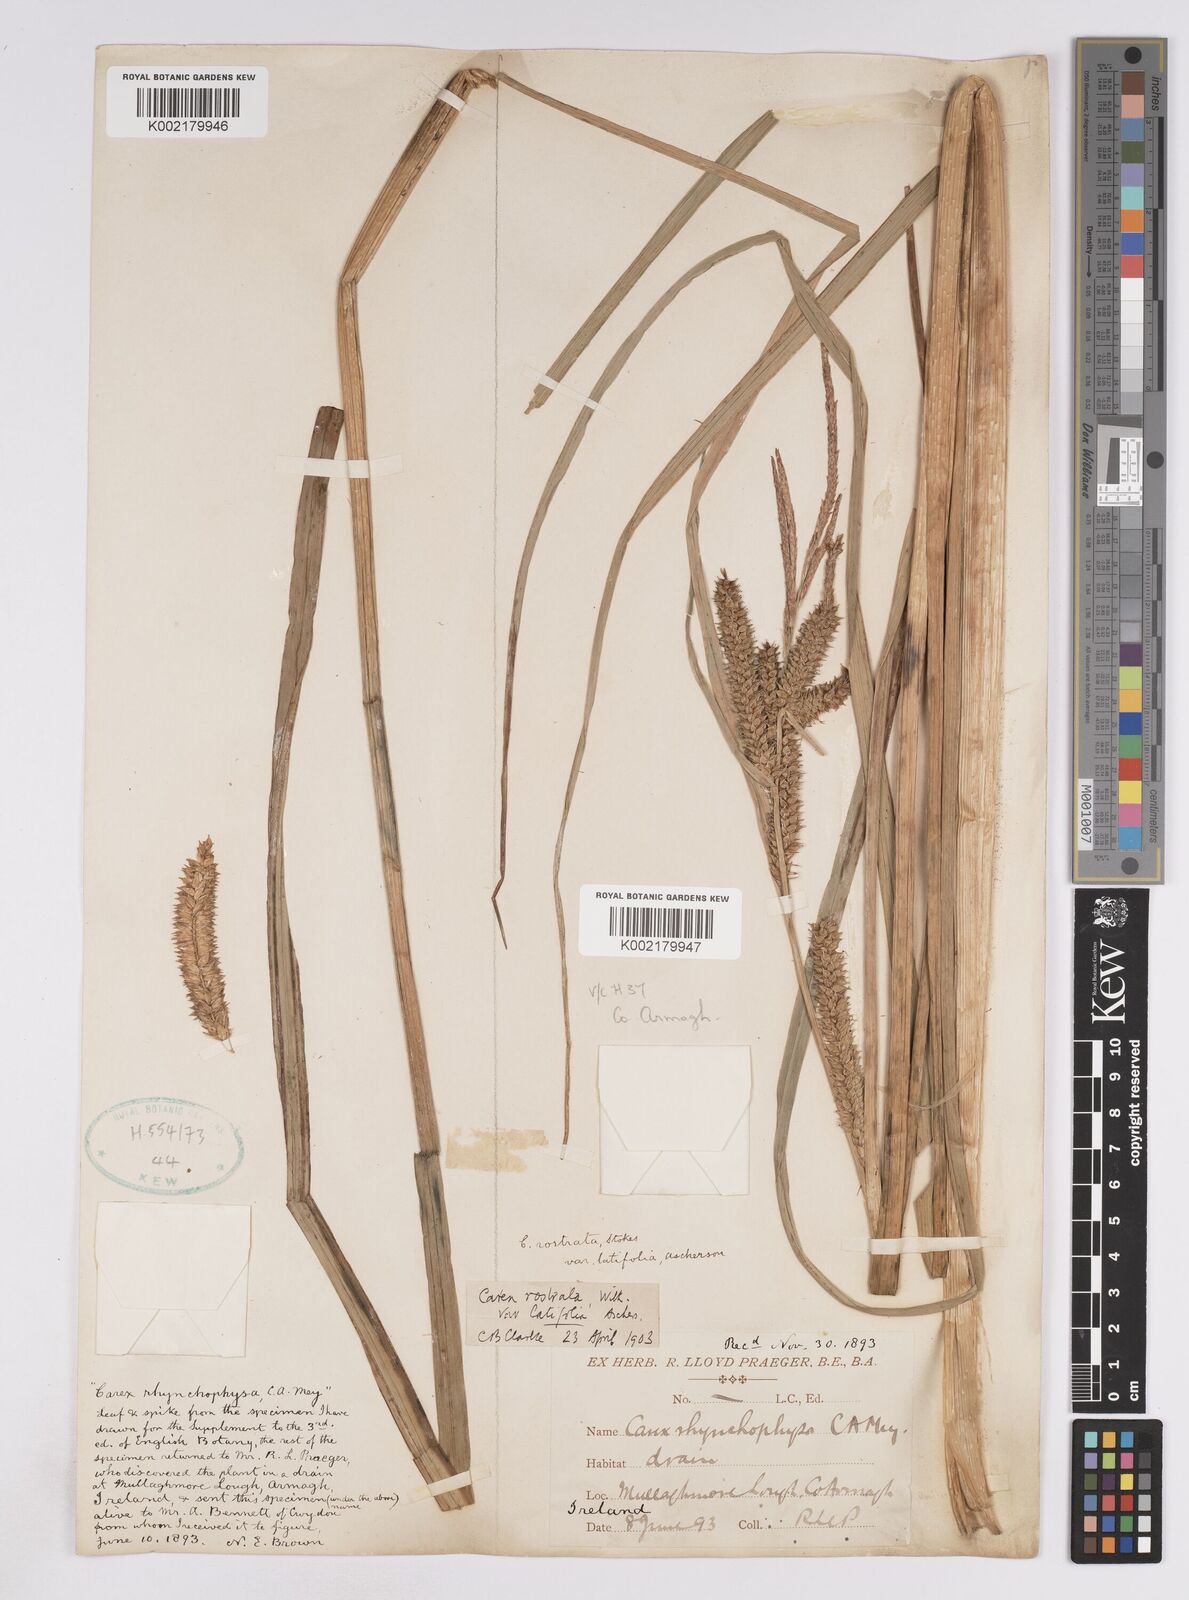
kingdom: Plantae
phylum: Tracheophyta
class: Liliopsida
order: Poales
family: Cyperaceae
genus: Carex
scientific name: Carex utriculata
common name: Beaked sedge
